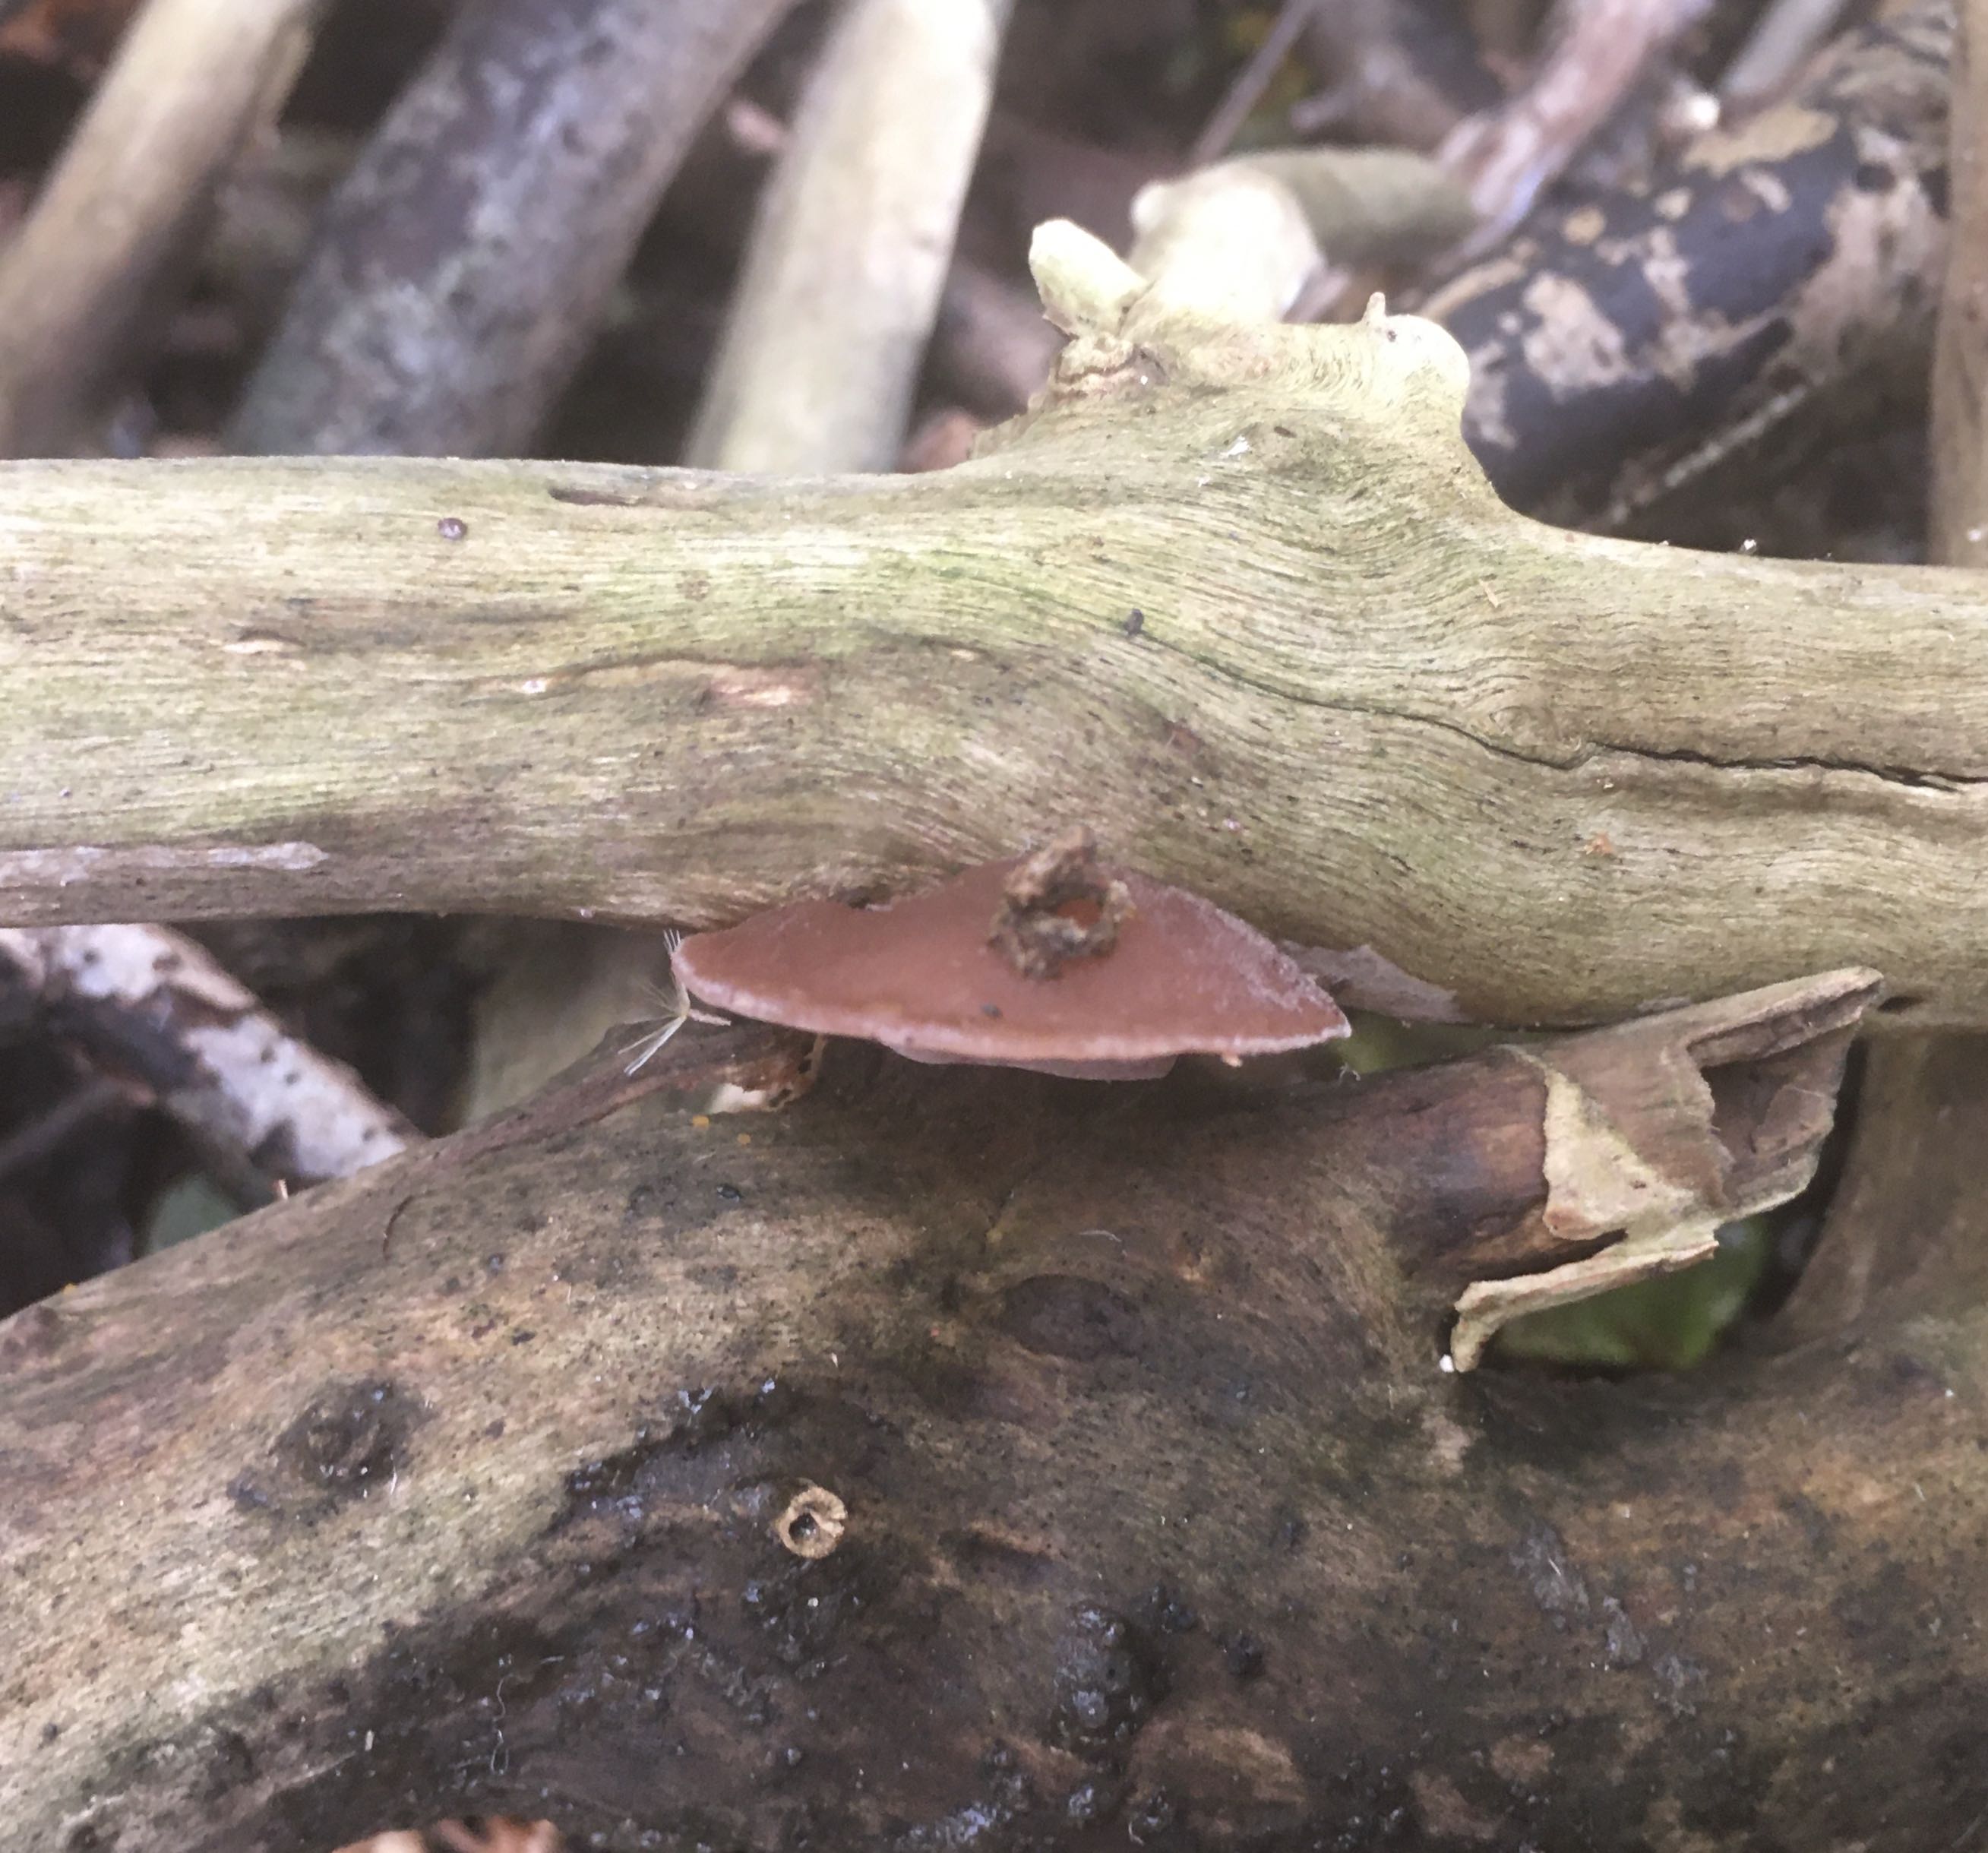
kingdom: Fungi
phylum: Basidiomycota
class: Agaricomycetes
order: Auriculariales
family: Auriculariaceae
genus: Auricularia
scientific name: Auricularia auricula-judae
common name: almindelig judasøre
